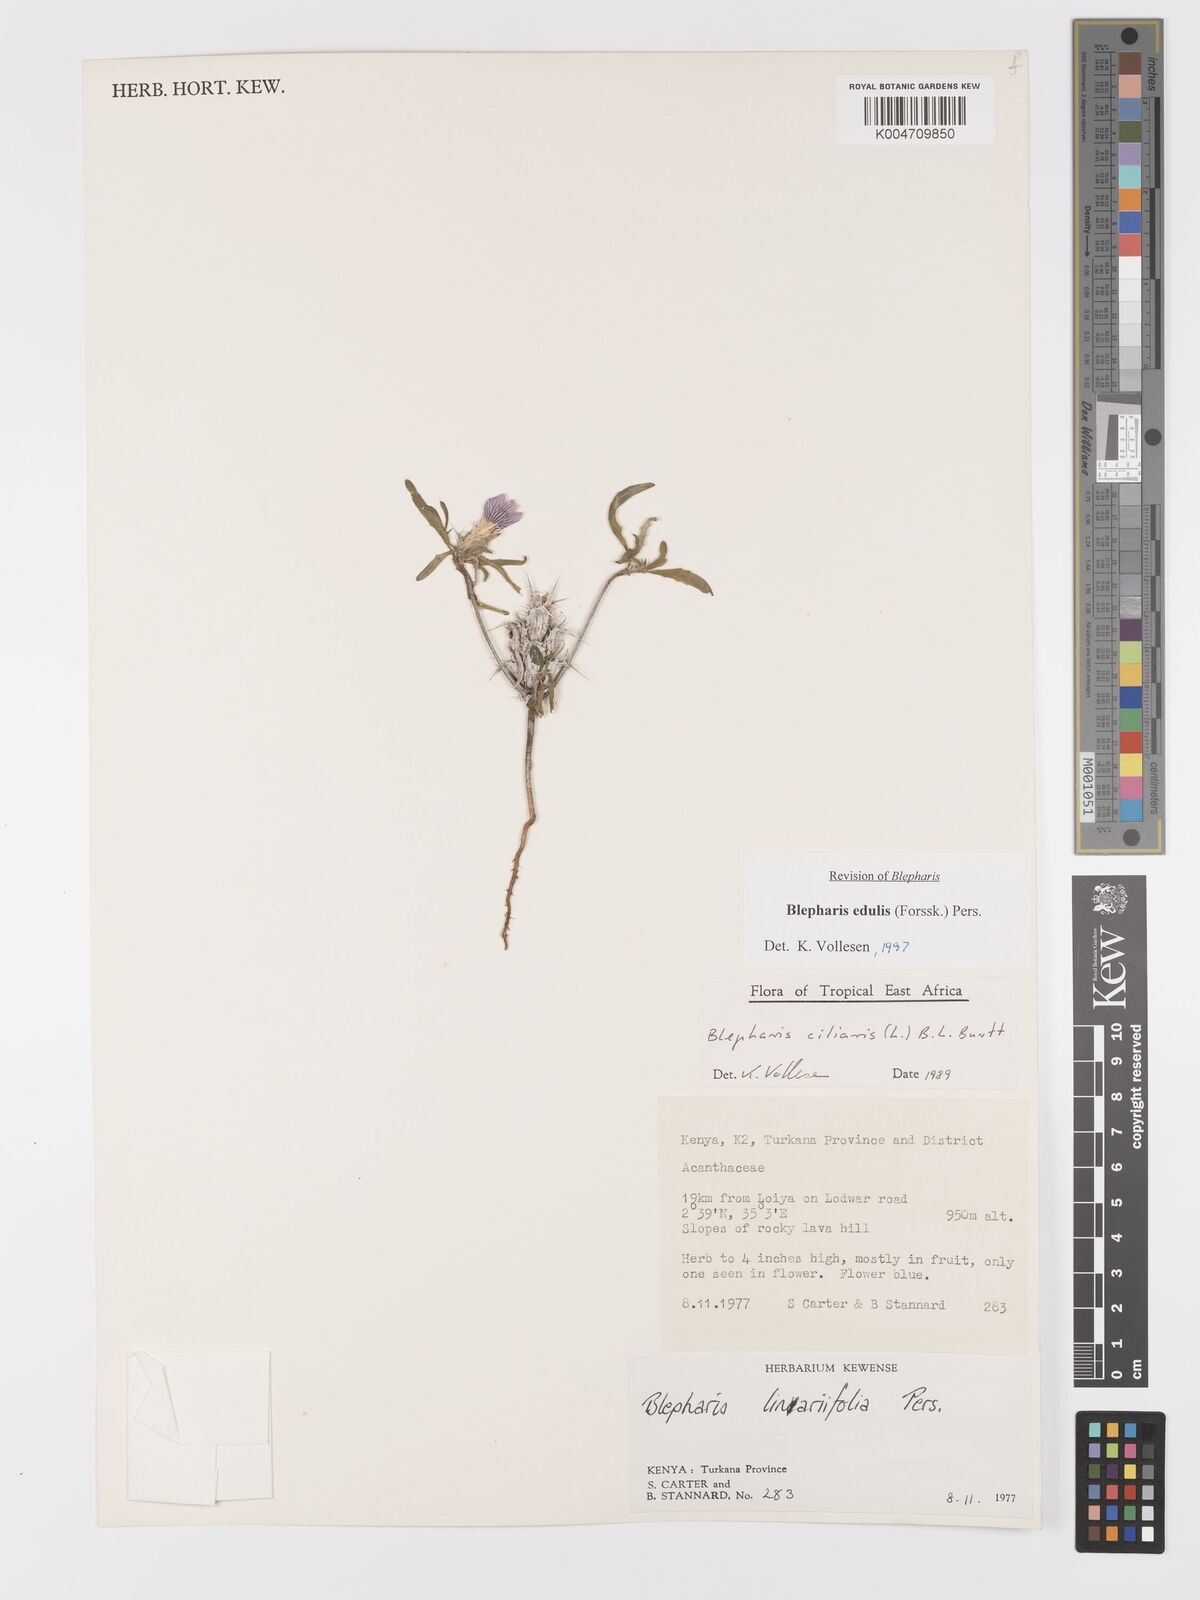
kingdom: Plantae
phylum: Tracheophyta
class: Magnoliopsida
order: Lamiales
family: Acanthaceae
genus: Blepharis
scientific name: Blepharis edulis
